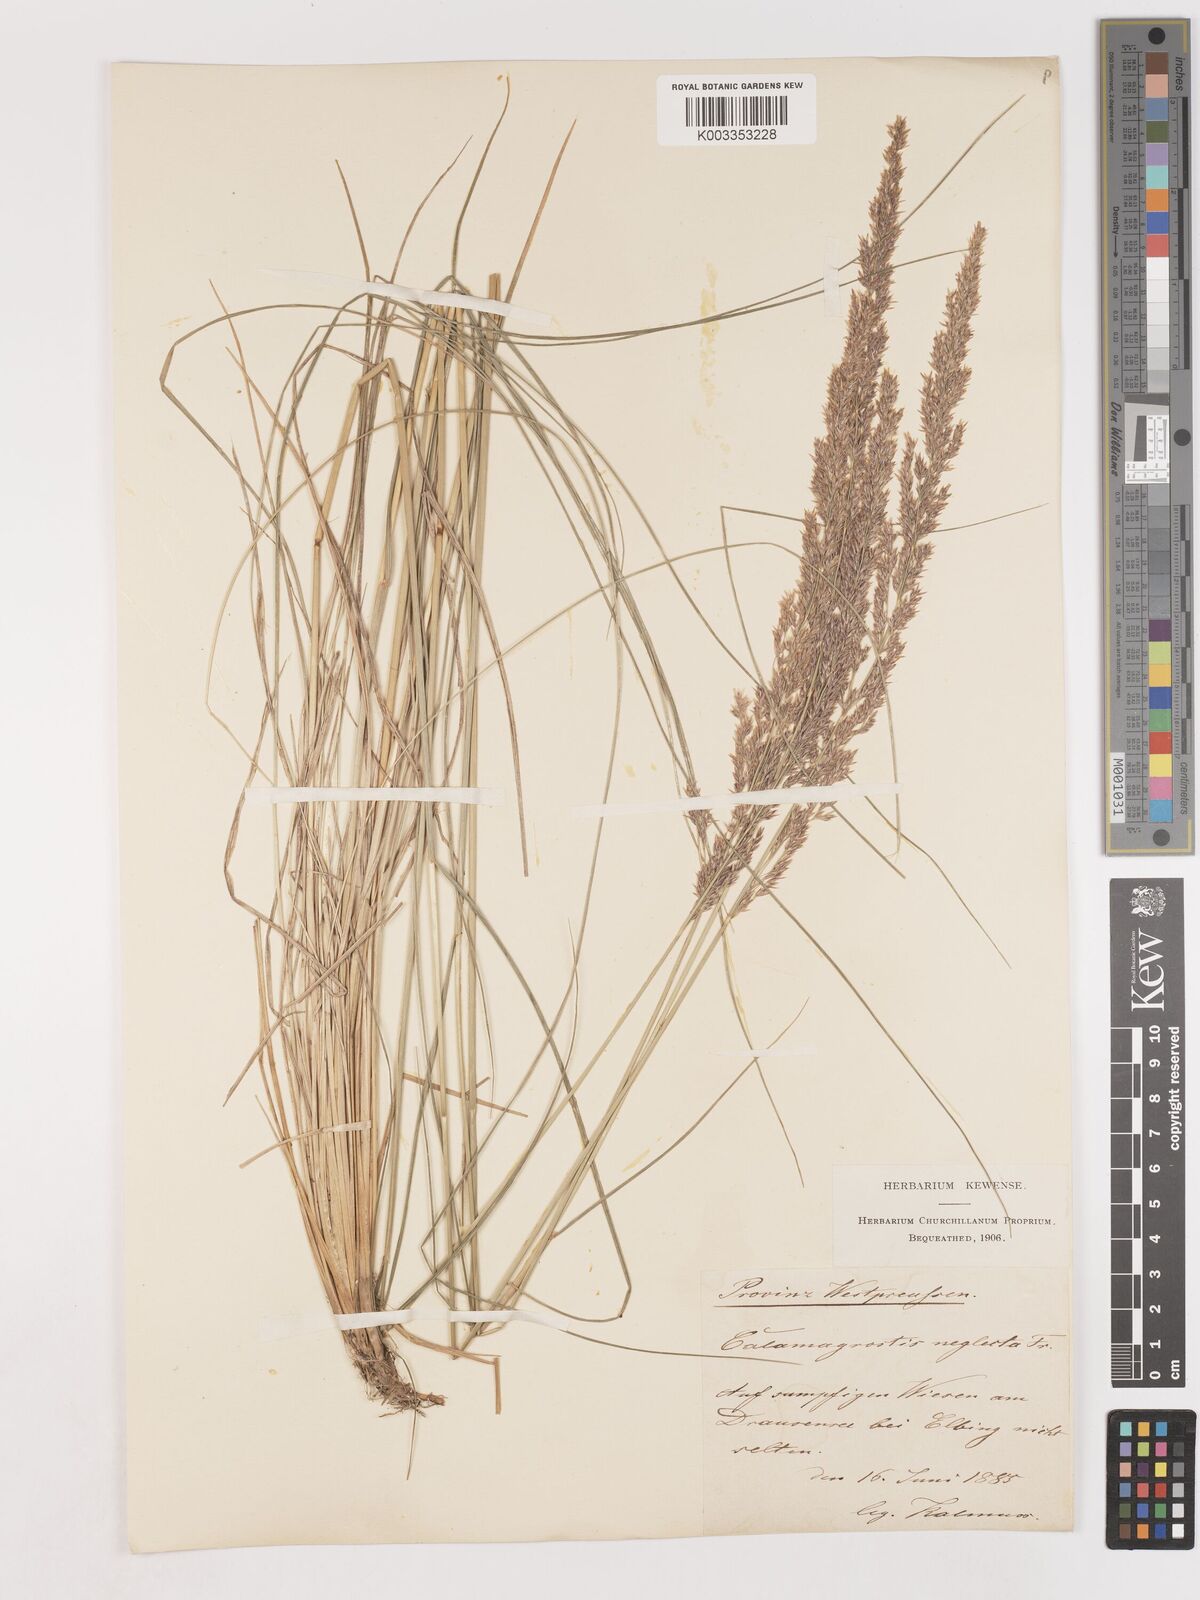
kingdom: Plantae
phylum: Tracheophyta
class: Liliopsida
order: Poales
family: Poaceae
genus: Cinnagrostis
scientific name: Cinnagrostis recta
